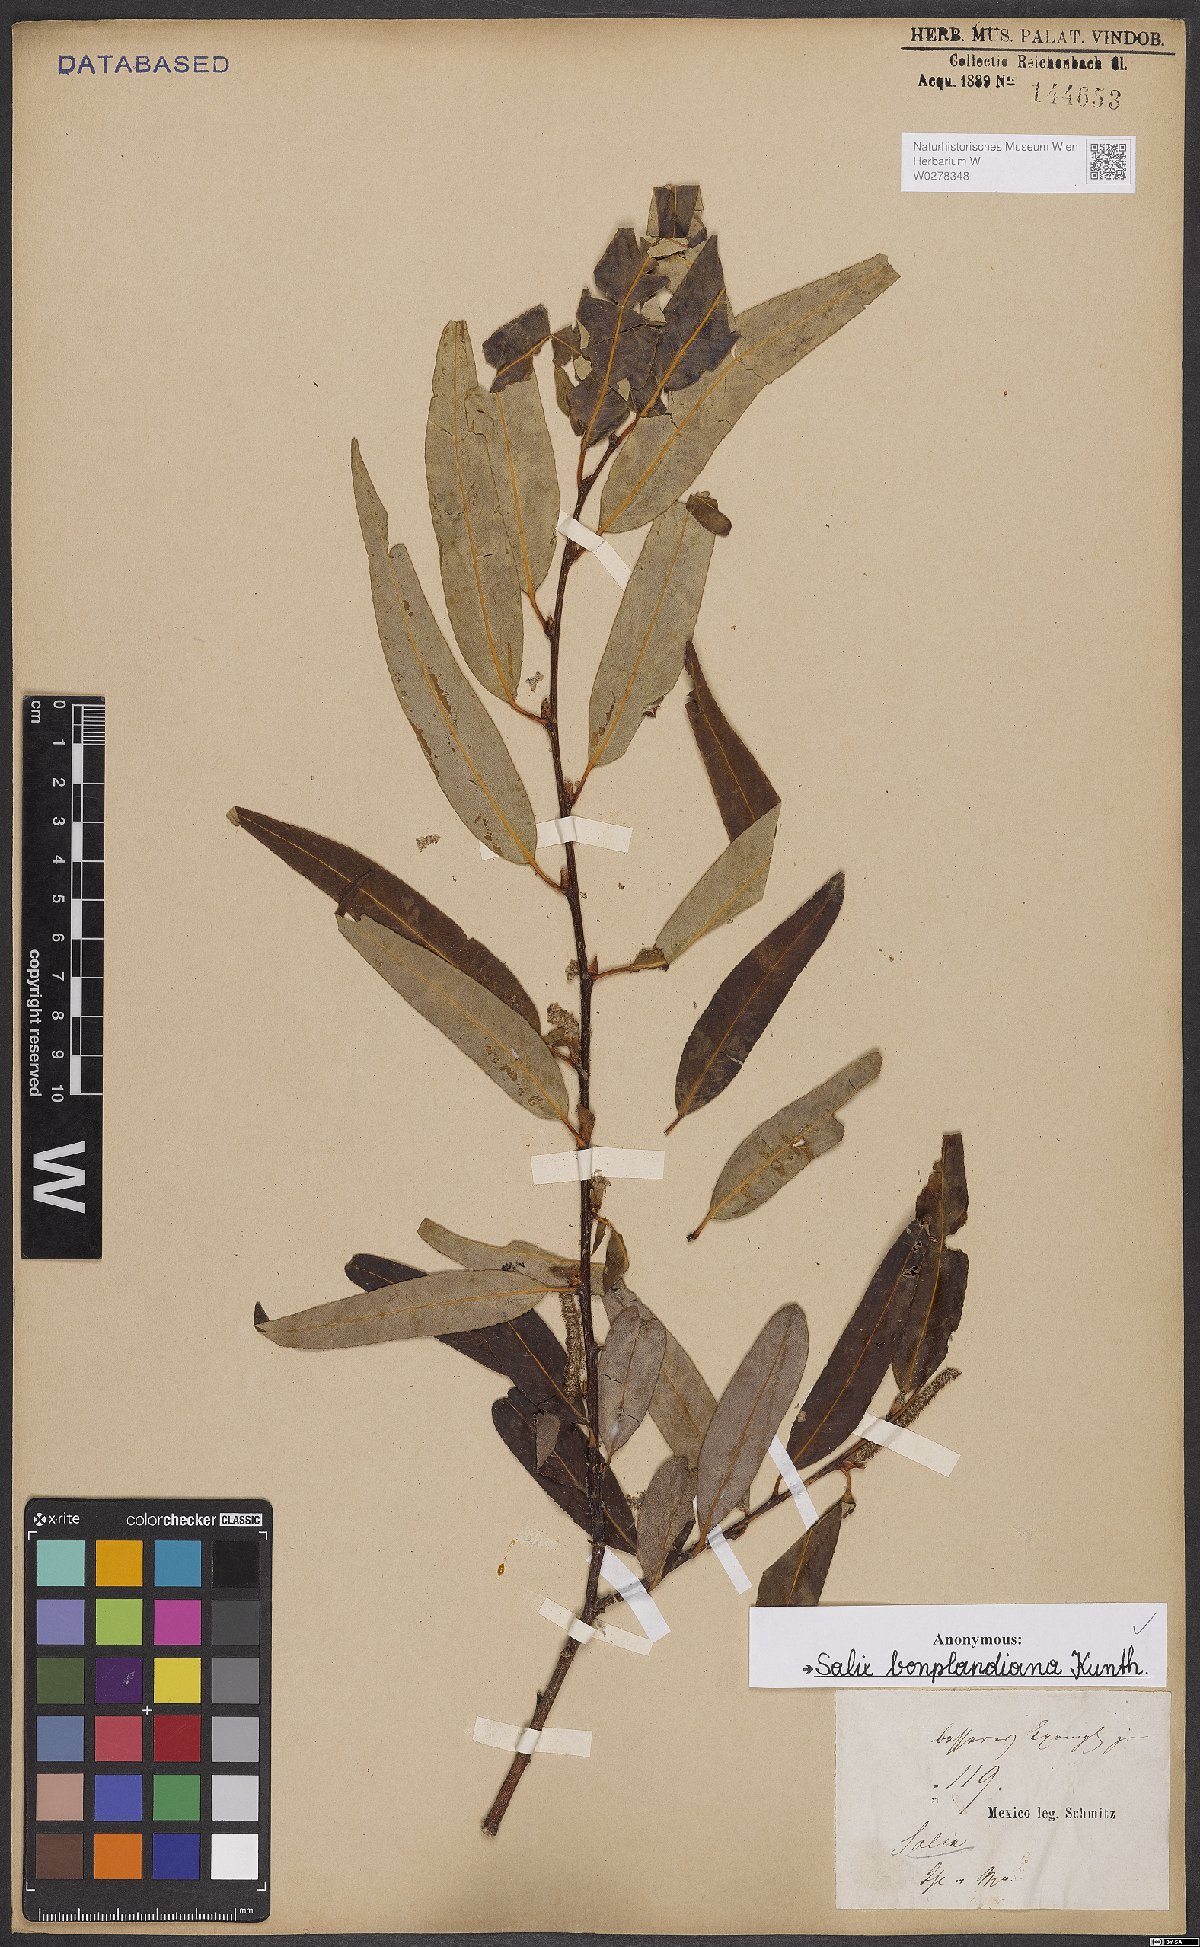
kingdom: Plantae
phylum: Tracheophyta
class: Magnoliopsida
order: Malpighiales
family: Salicaceae
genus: Salix
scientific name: Salix bonplandiana
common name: Bonpland’s willow
